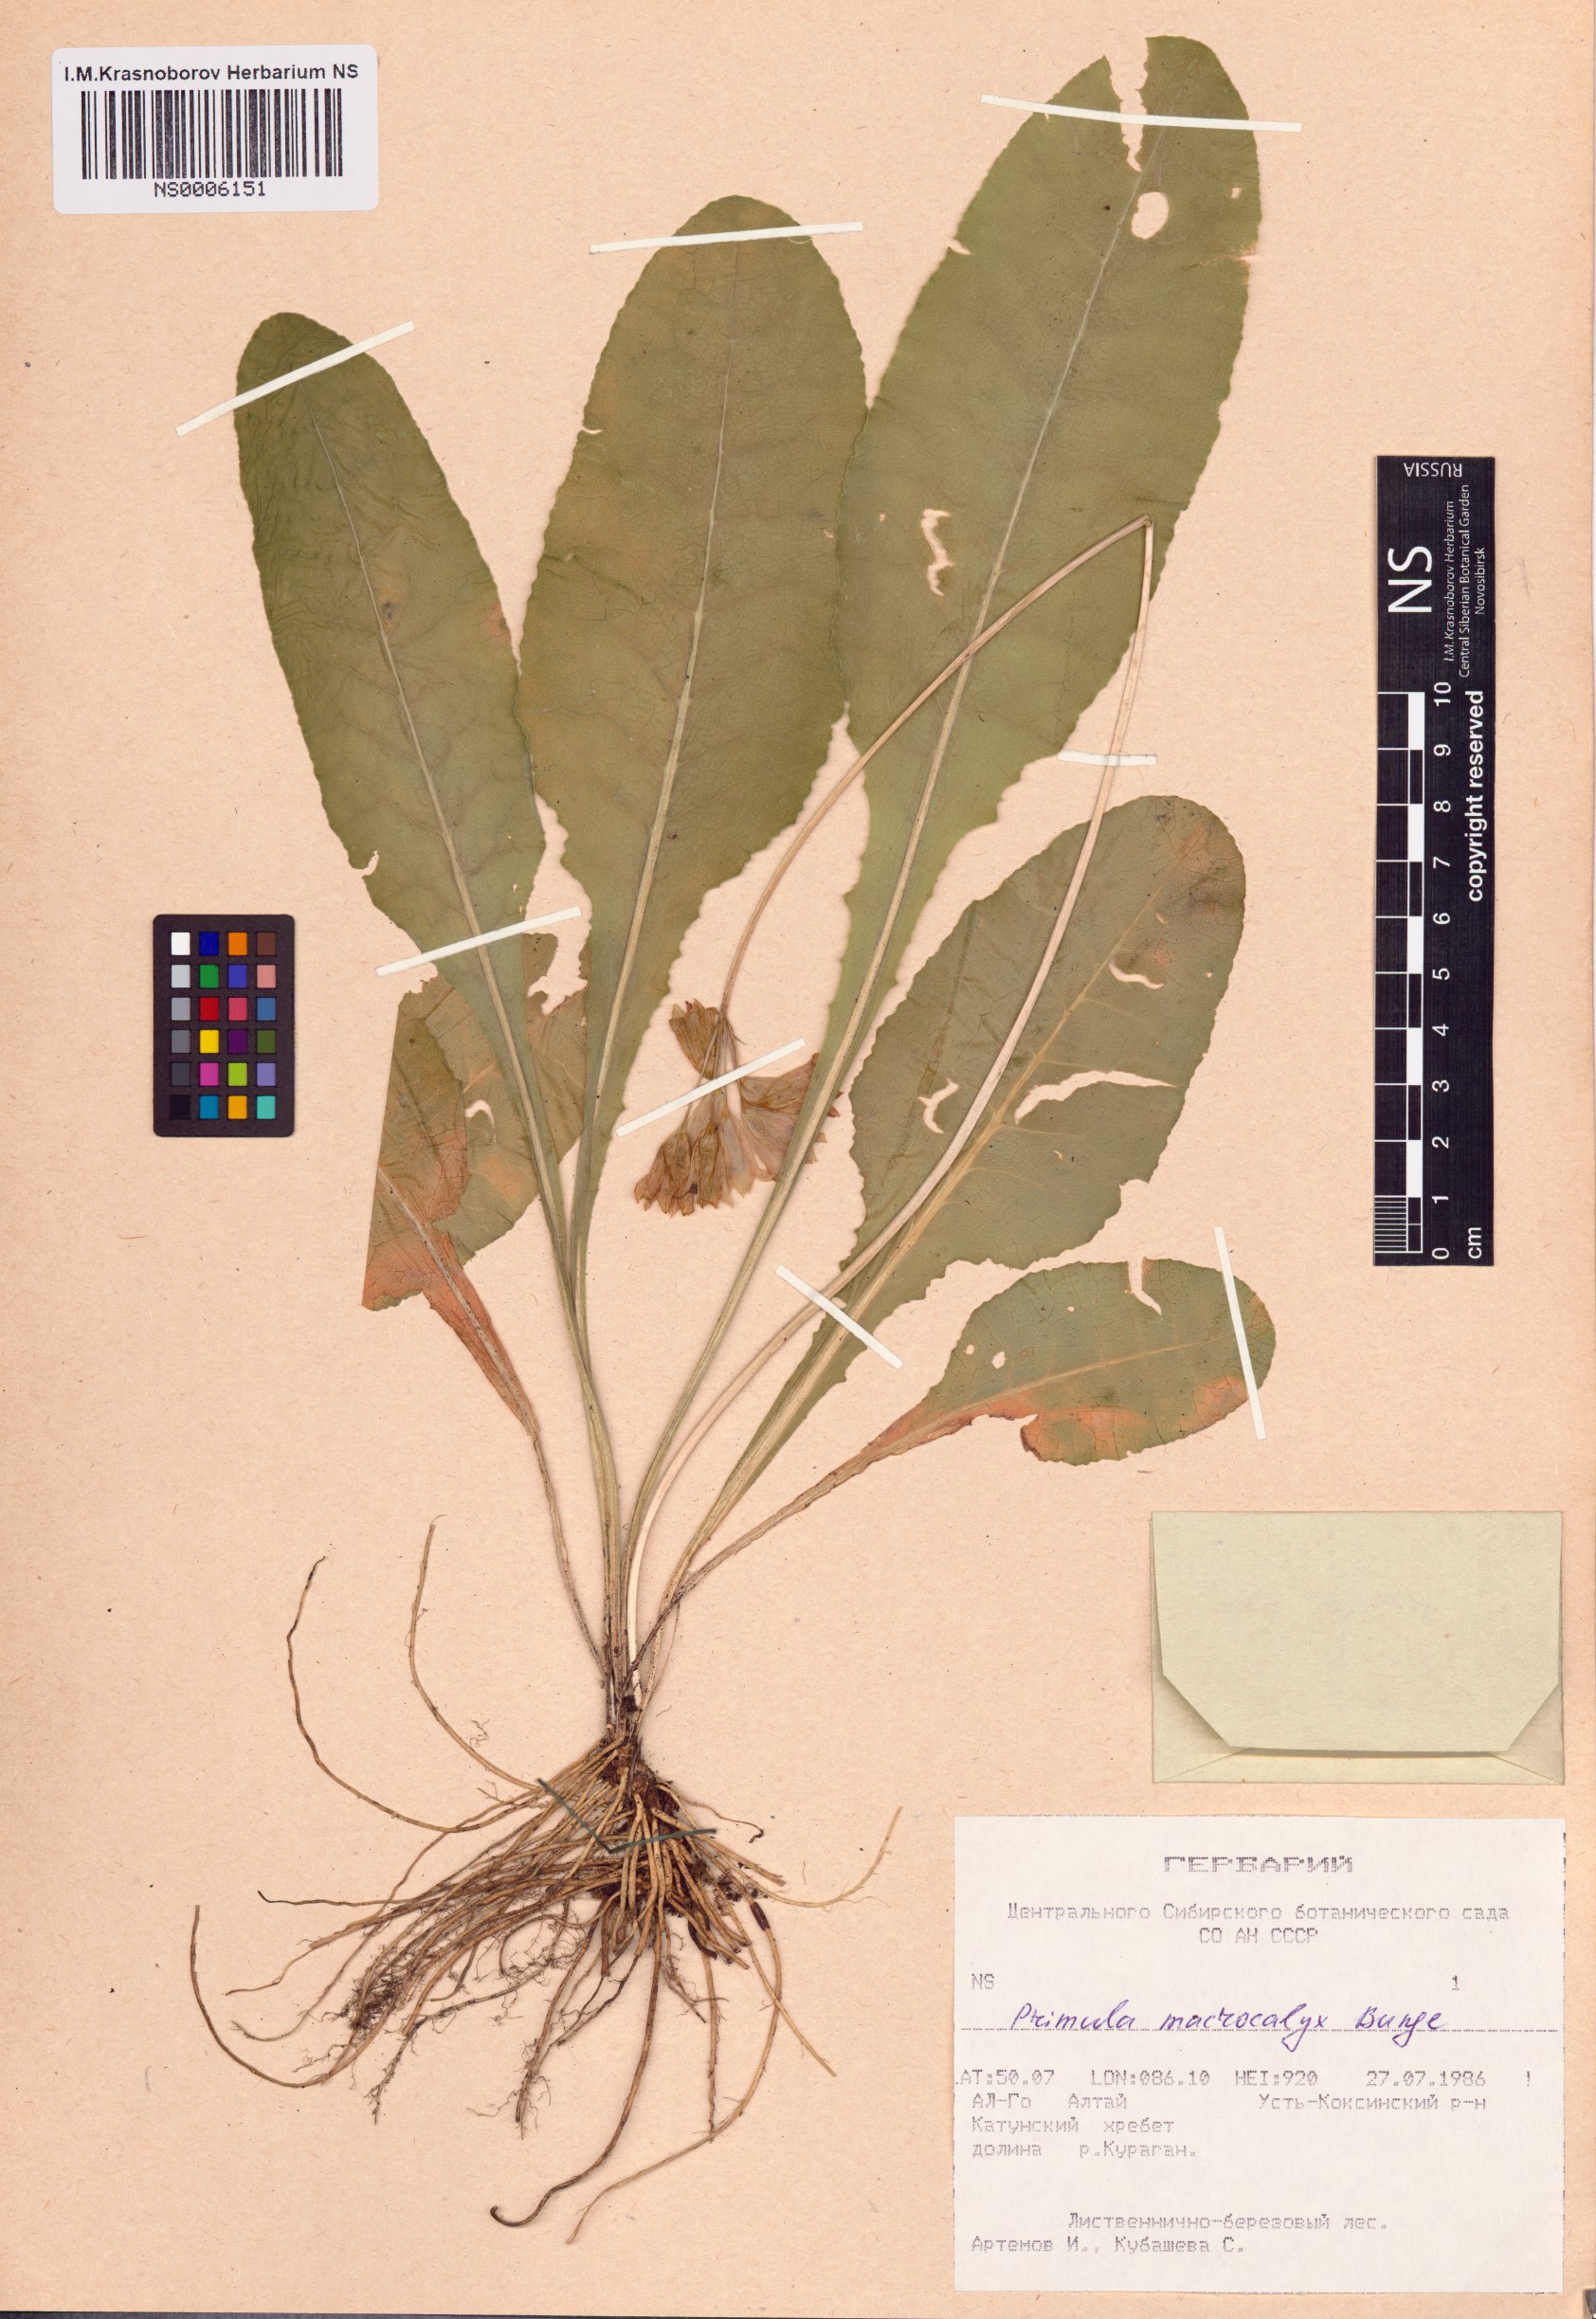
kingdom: Plantae
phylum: Tracheophyta
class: Magnoliopsida
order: Ericales
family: Primulaceae
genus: Primula
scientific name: Primula veris
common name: Cowslip
